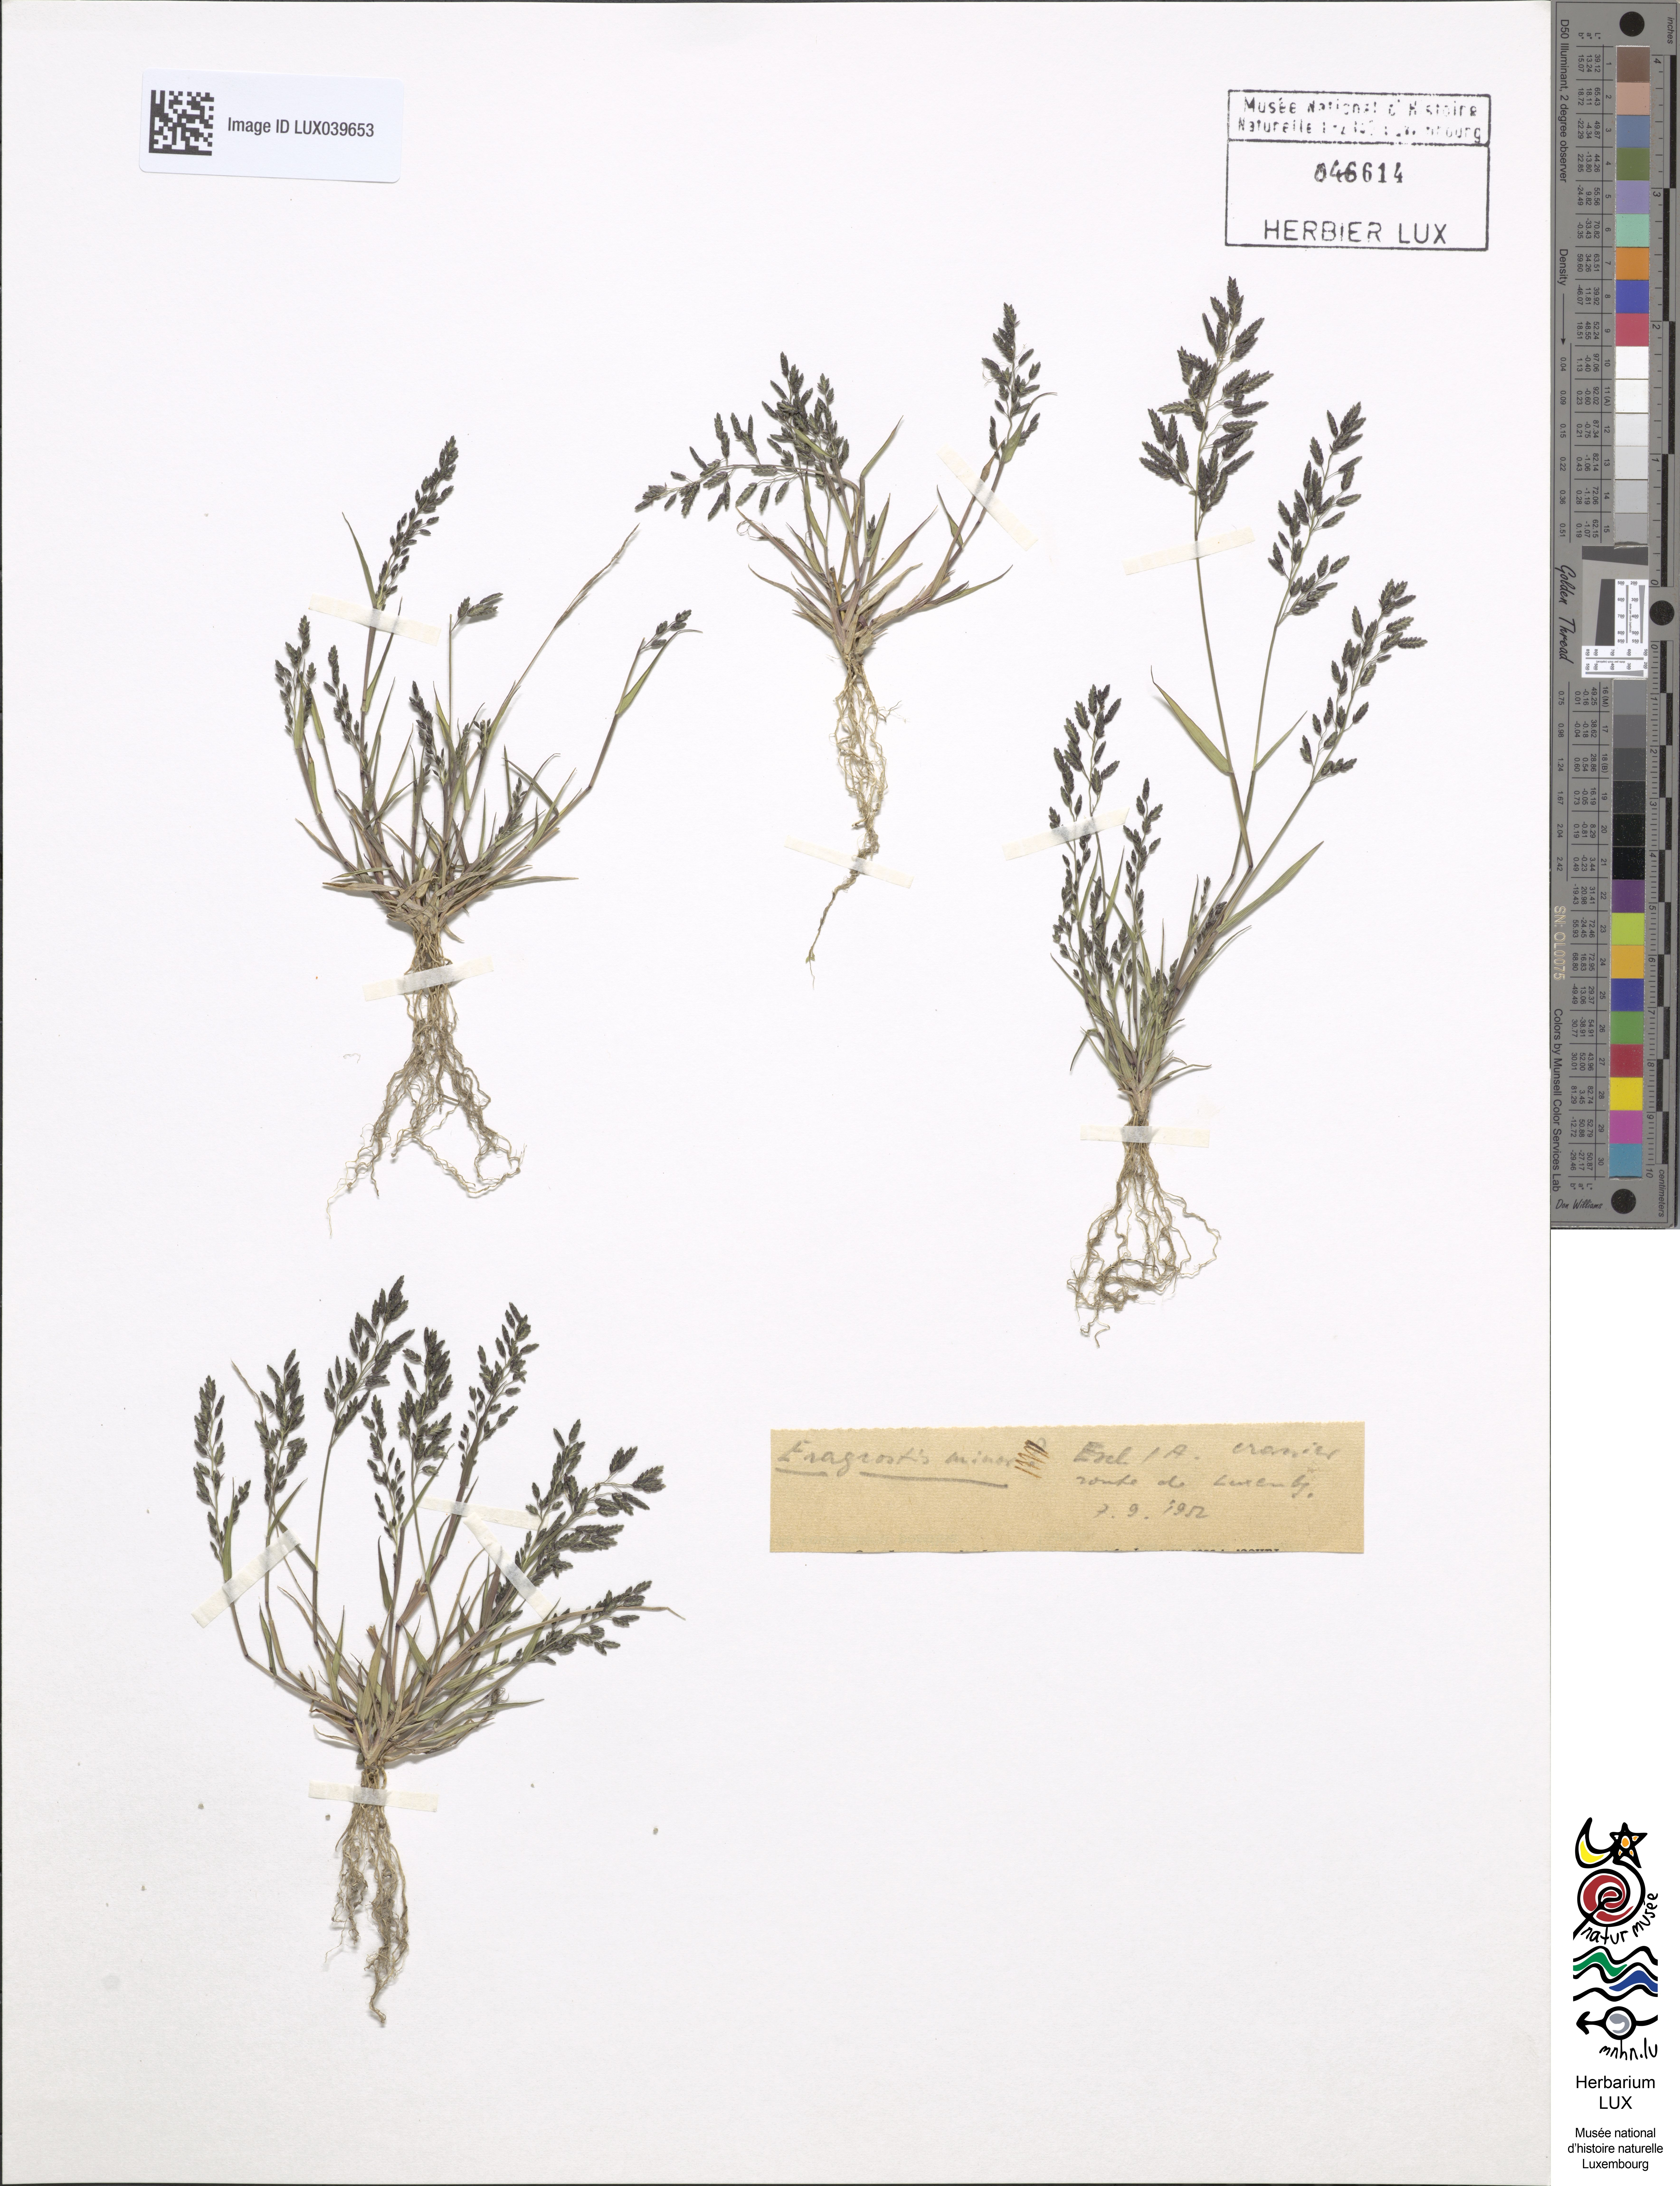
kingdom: Plantae
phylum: Tracheophyta
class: Liliopsida
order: Poales
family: Poaceae
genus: Eragrostis
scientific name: Eragrostis minor
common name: Small love-grass
